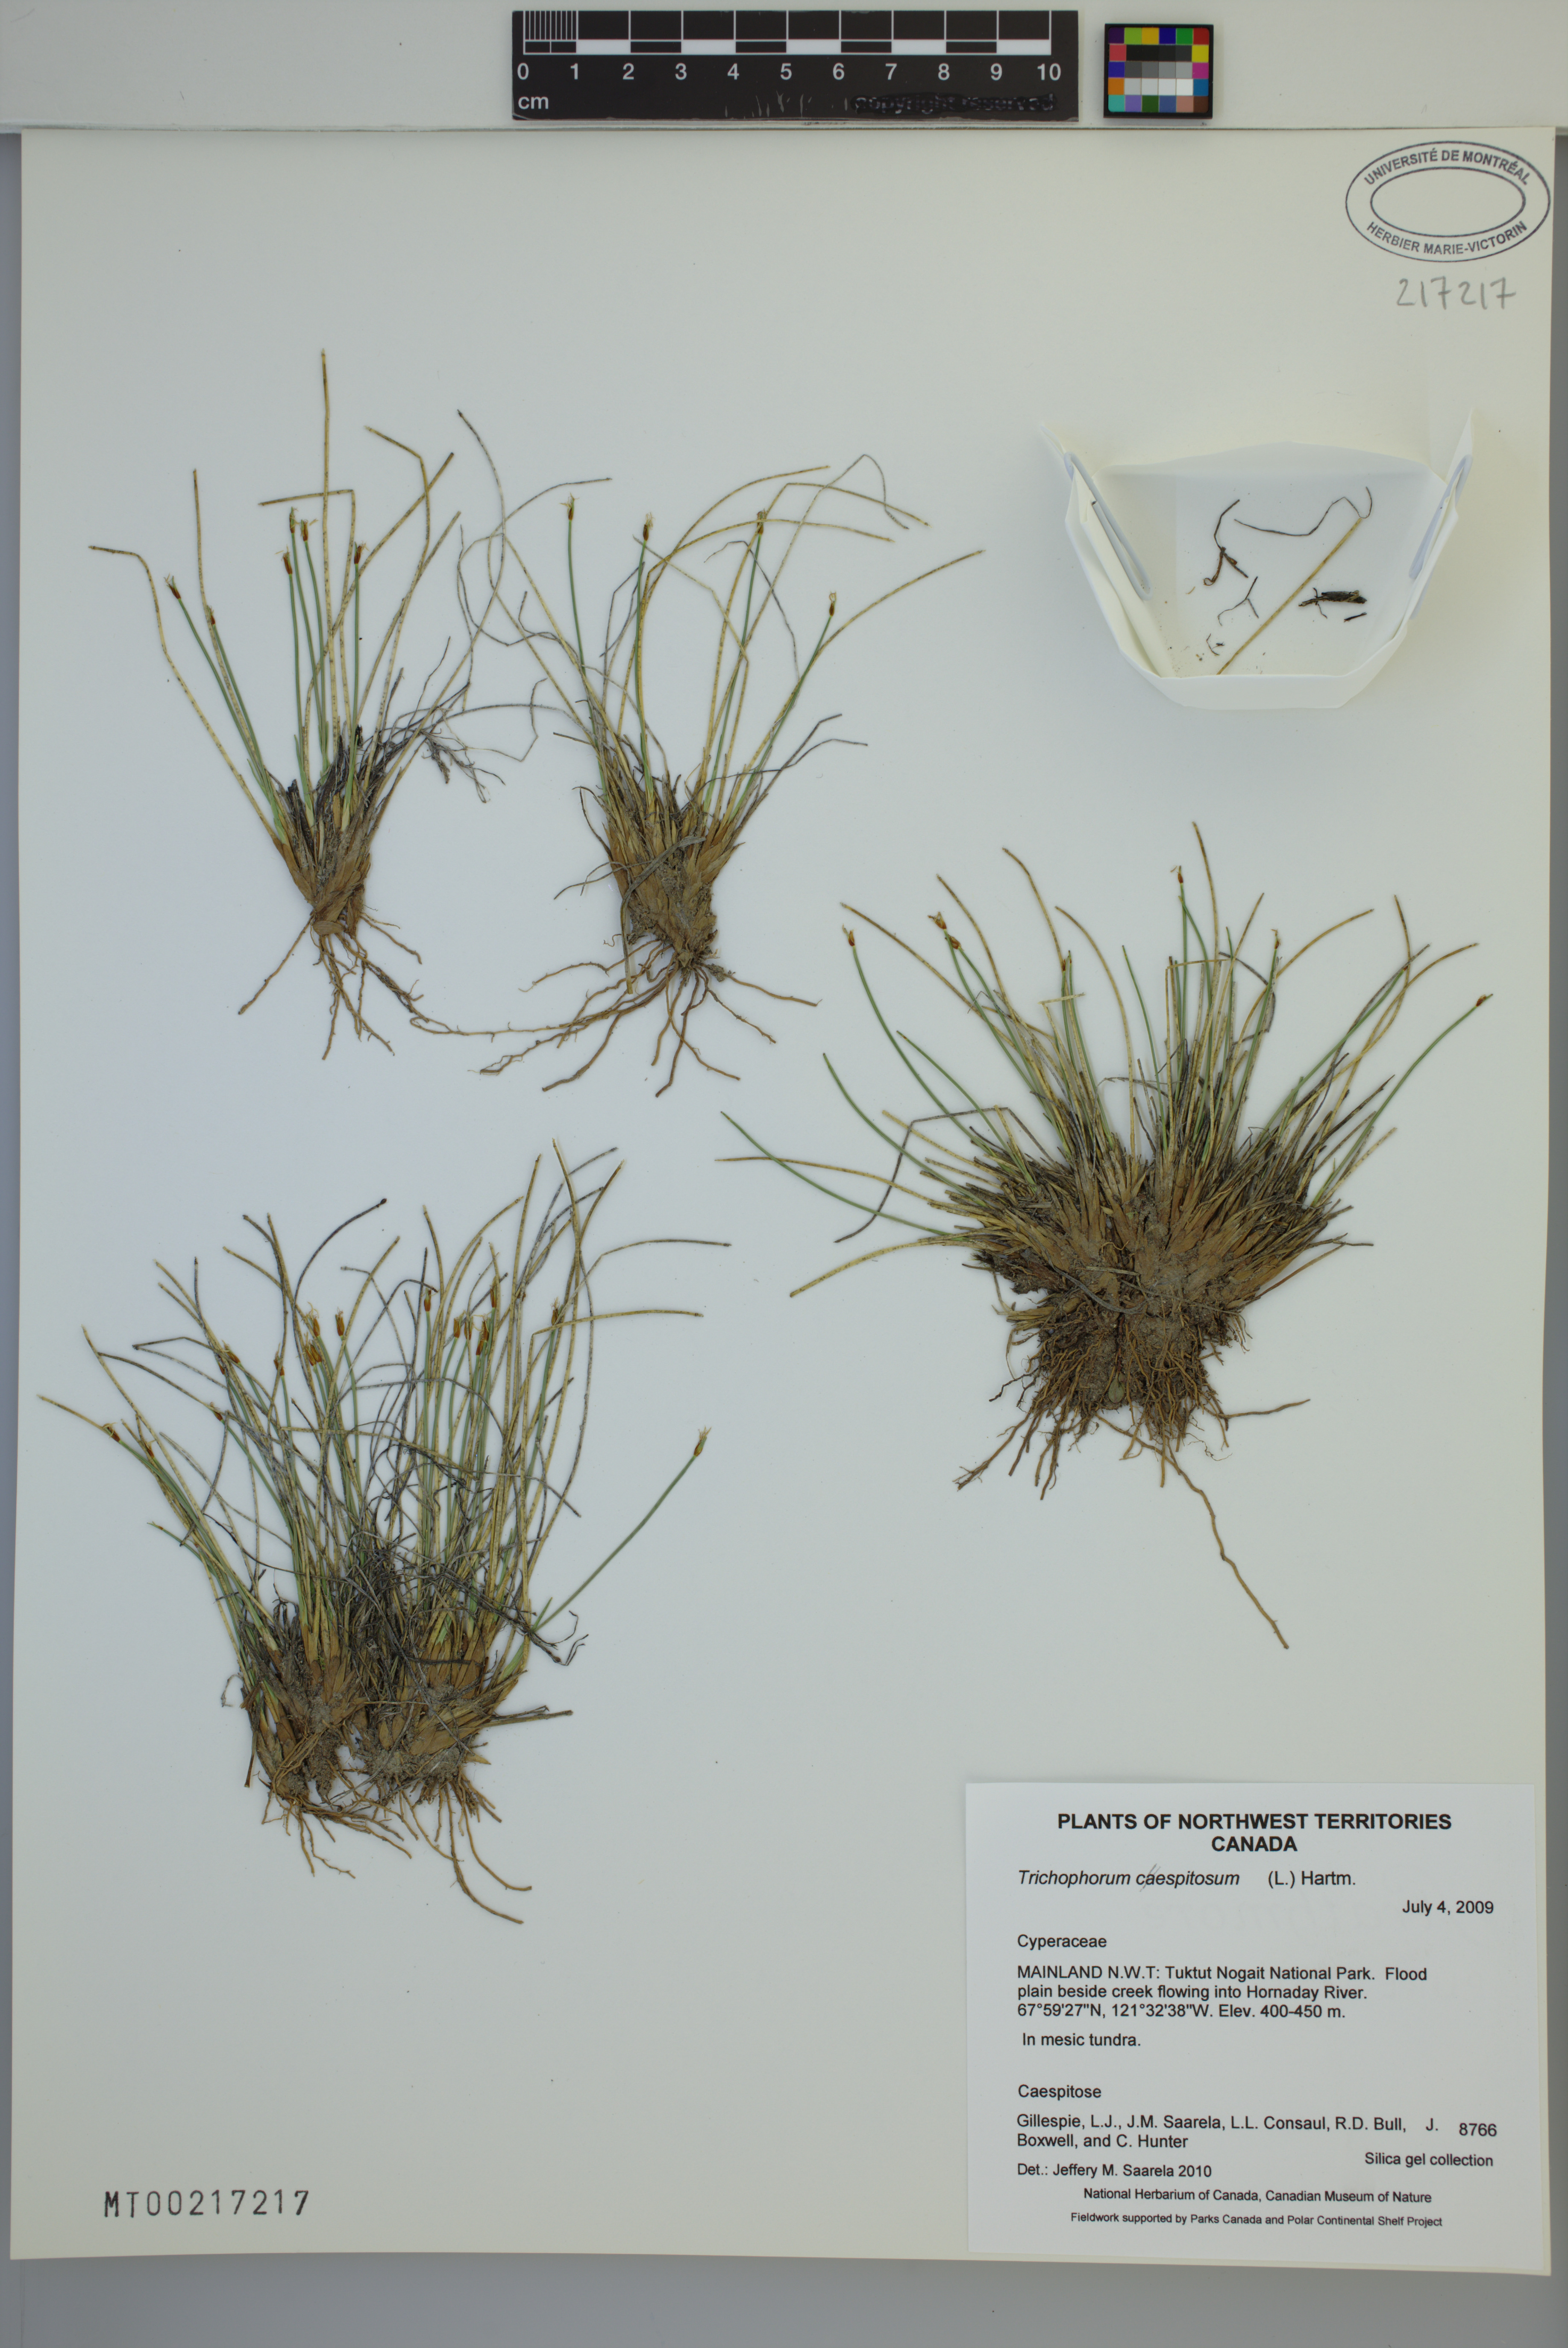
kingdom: Plantae
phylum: Tracheophyta
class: Liliopsida
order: Poales
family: Cyperaceae
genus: Trichophorum
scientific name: Trichophorum cespitosum
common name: Cespitose bulrush
